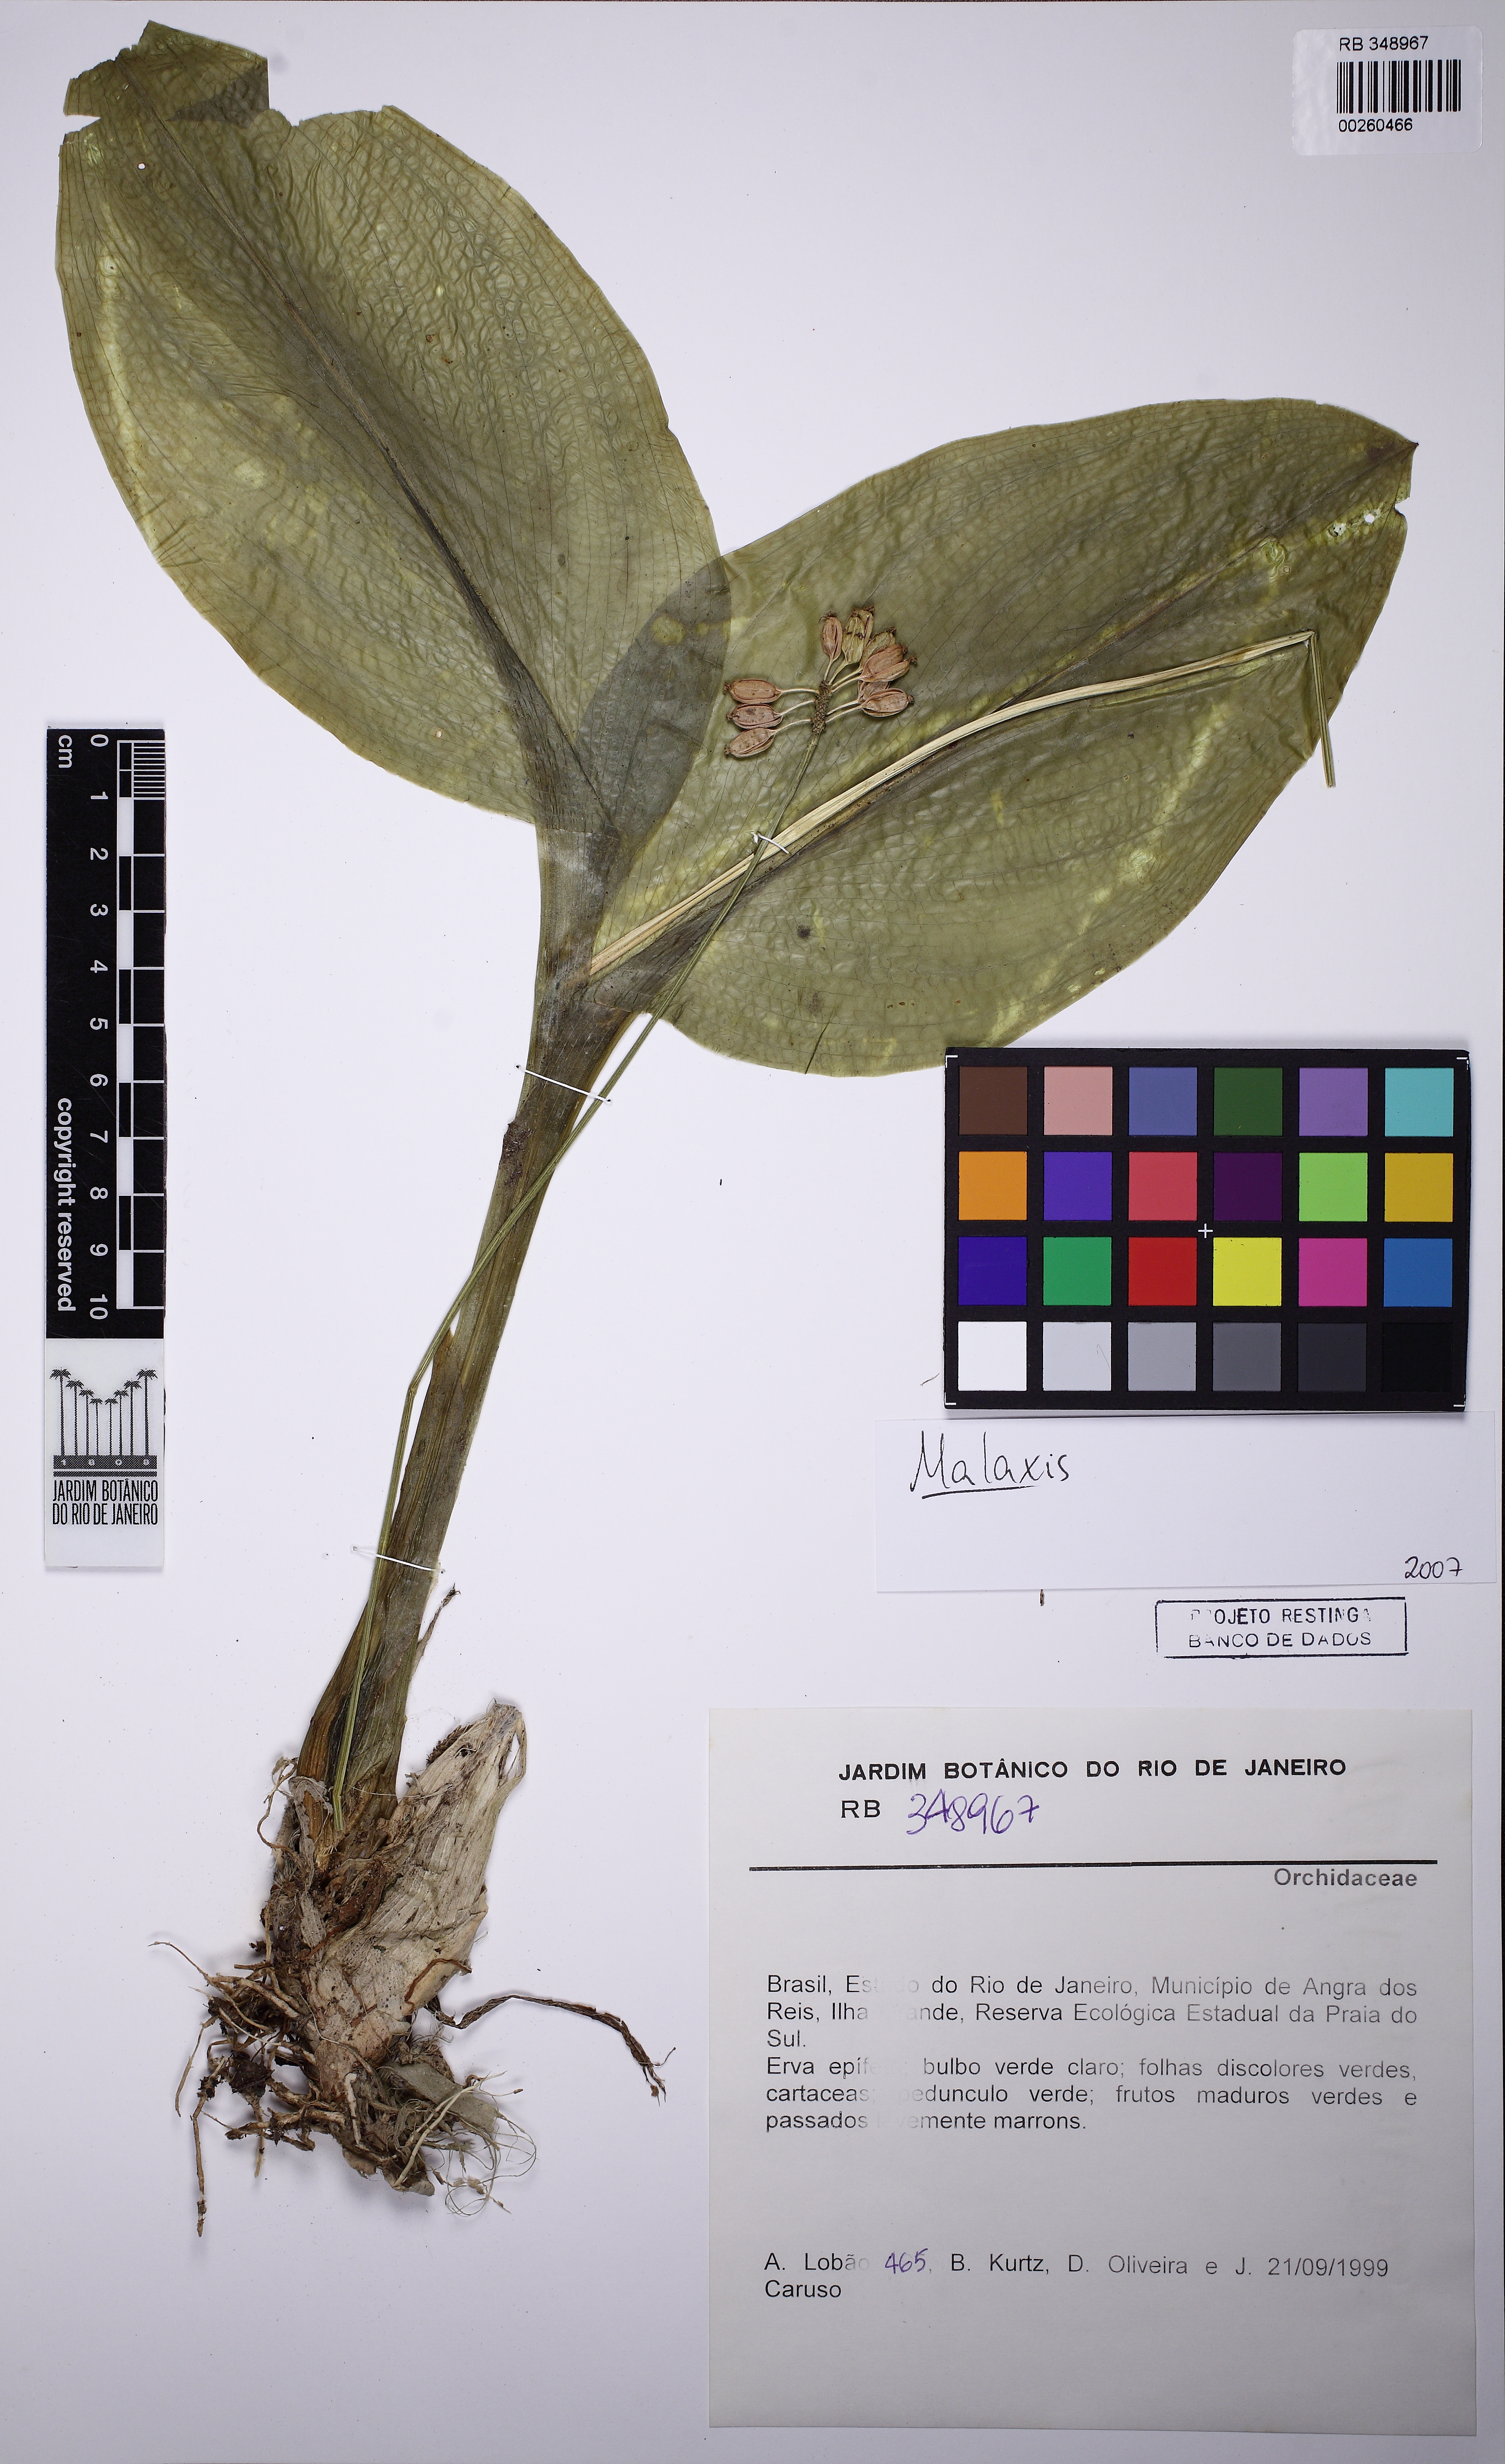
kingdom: Plantae
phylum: Tracheophyta
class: Liliopsida
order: Asparagales
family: Orchidaceae
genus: Malaxis
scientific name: Malaxis
